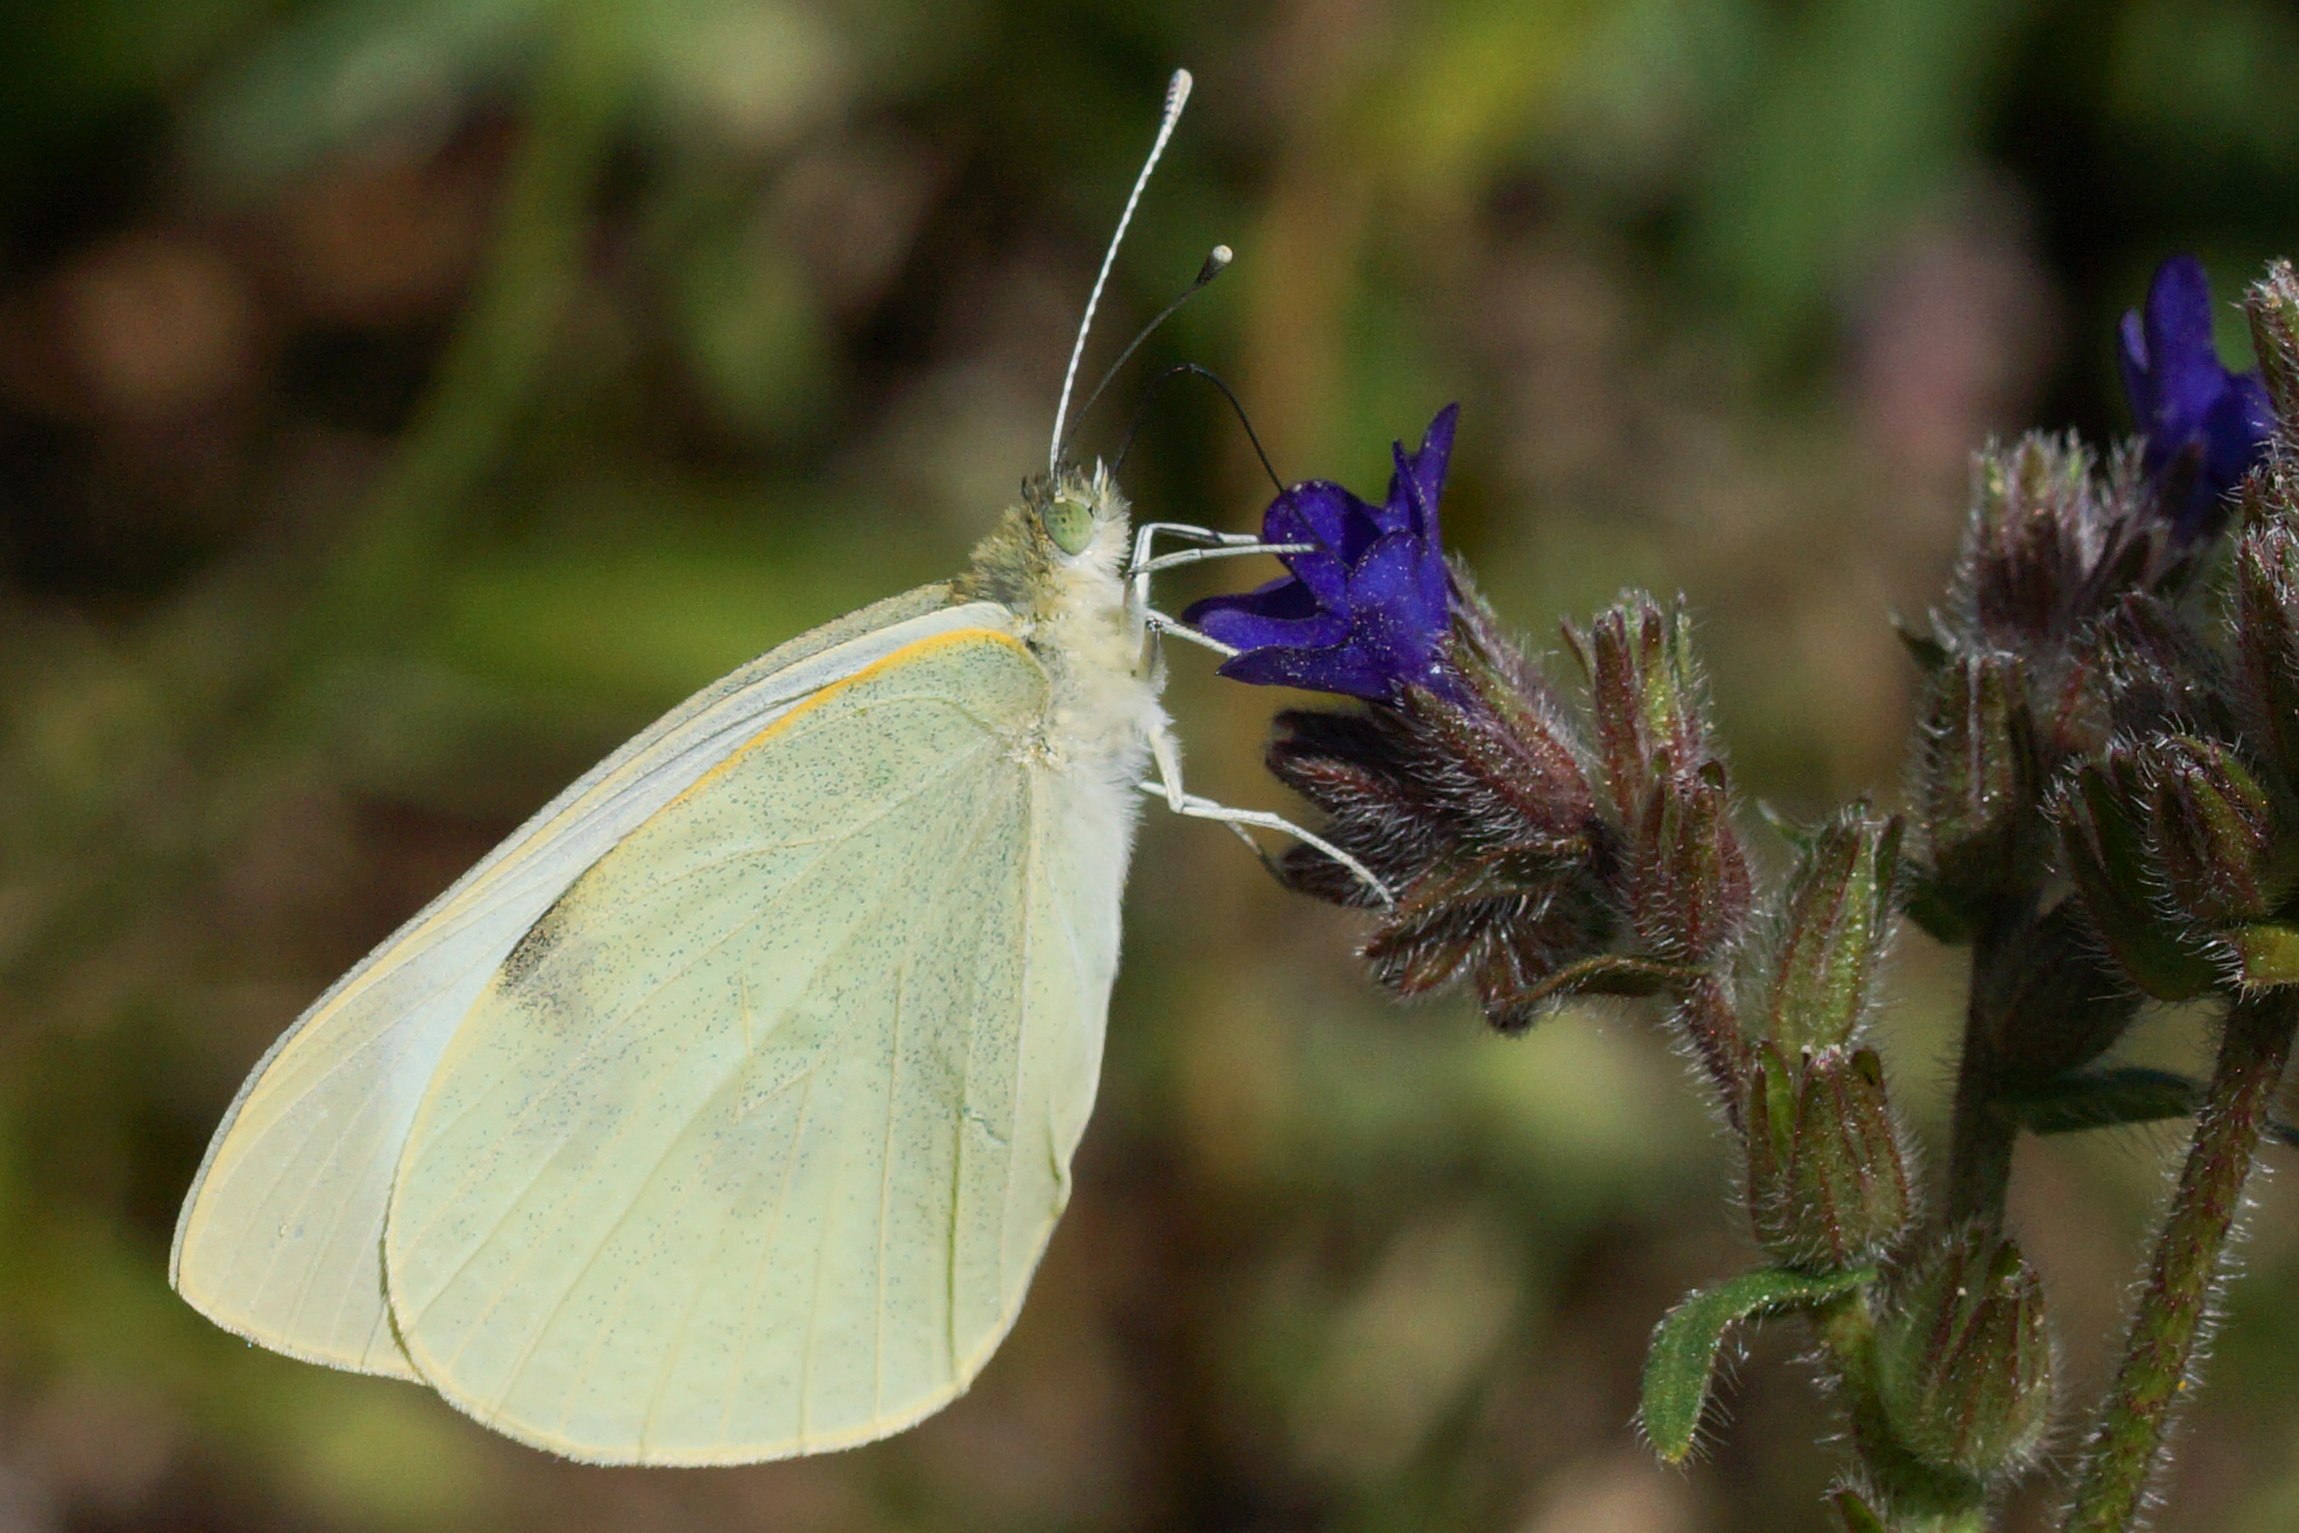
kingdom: Animalia
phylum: Arthropoda
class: Insecta
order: Lepidoptera
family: Pieridae
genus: Pieris
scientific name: Pieris brassicae
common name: Stor kålsommerfugl
